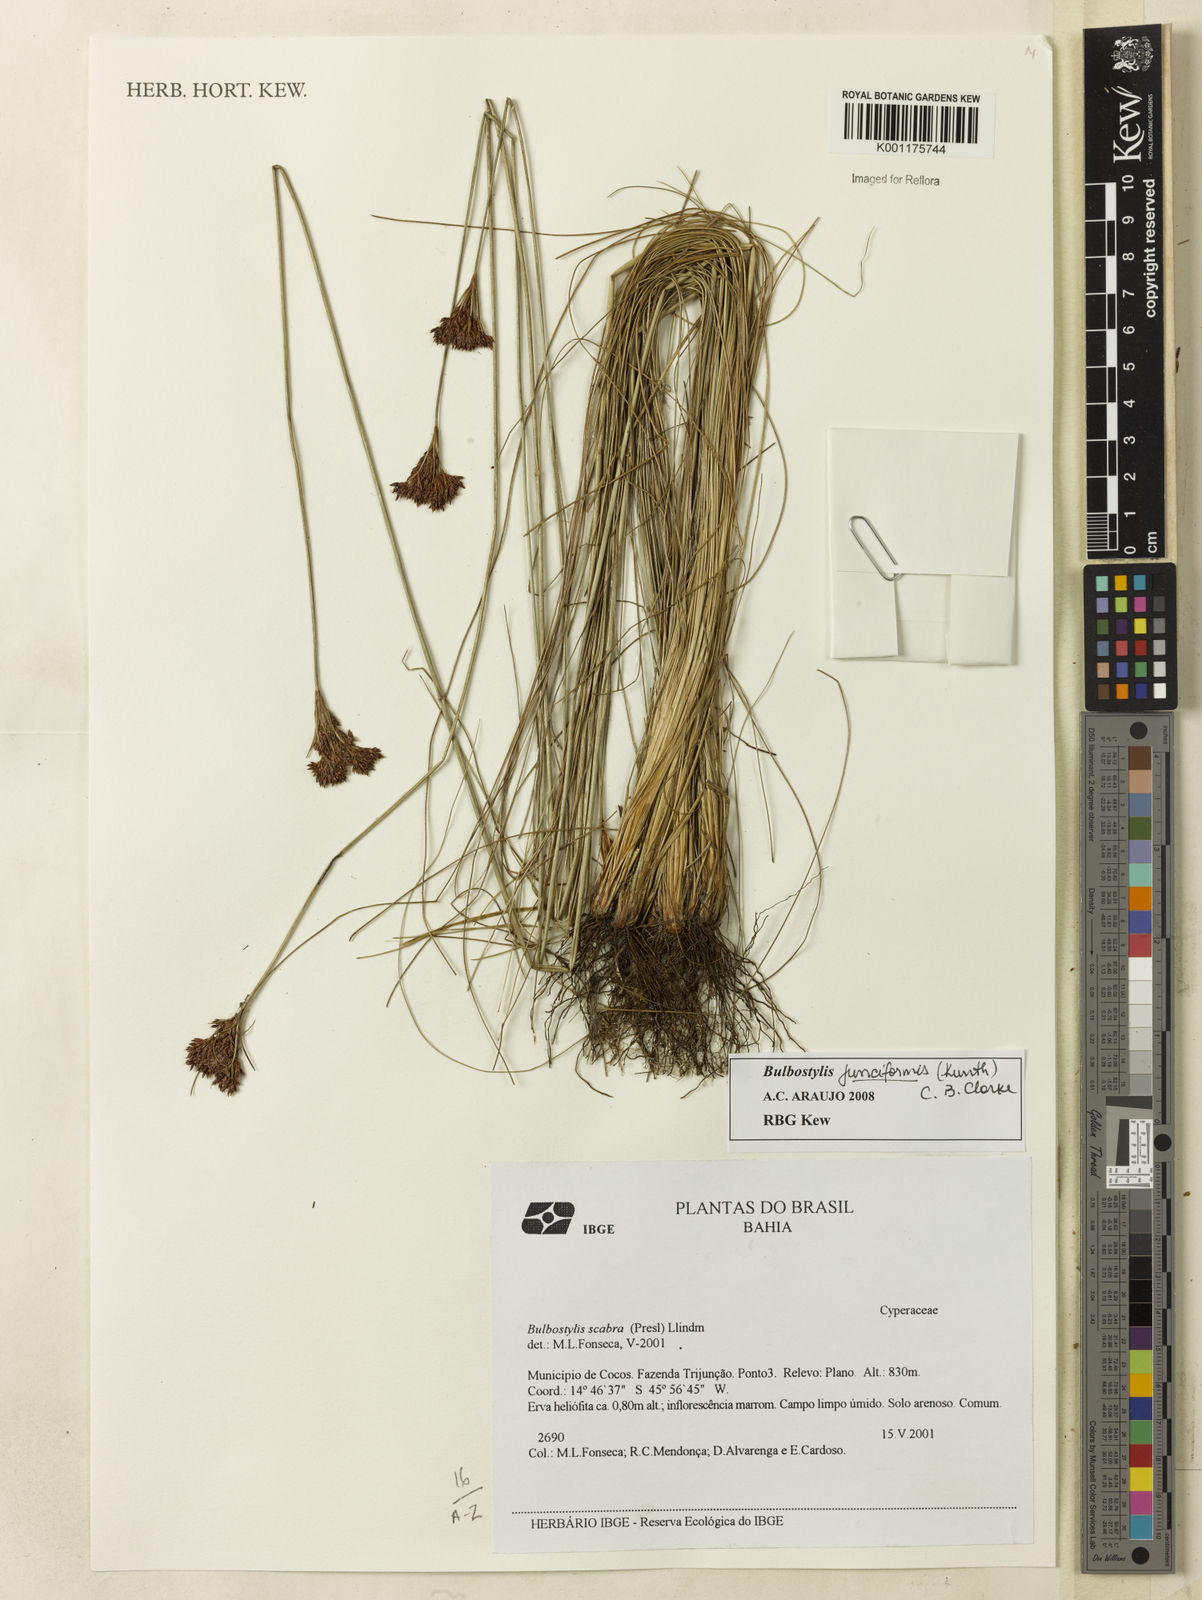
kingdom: Plantae
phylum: Tracheophyta
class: Liliopsida
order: Poales
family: Cyperaceae
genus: Bulbostylis
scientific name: Bulbostylis junciformis
